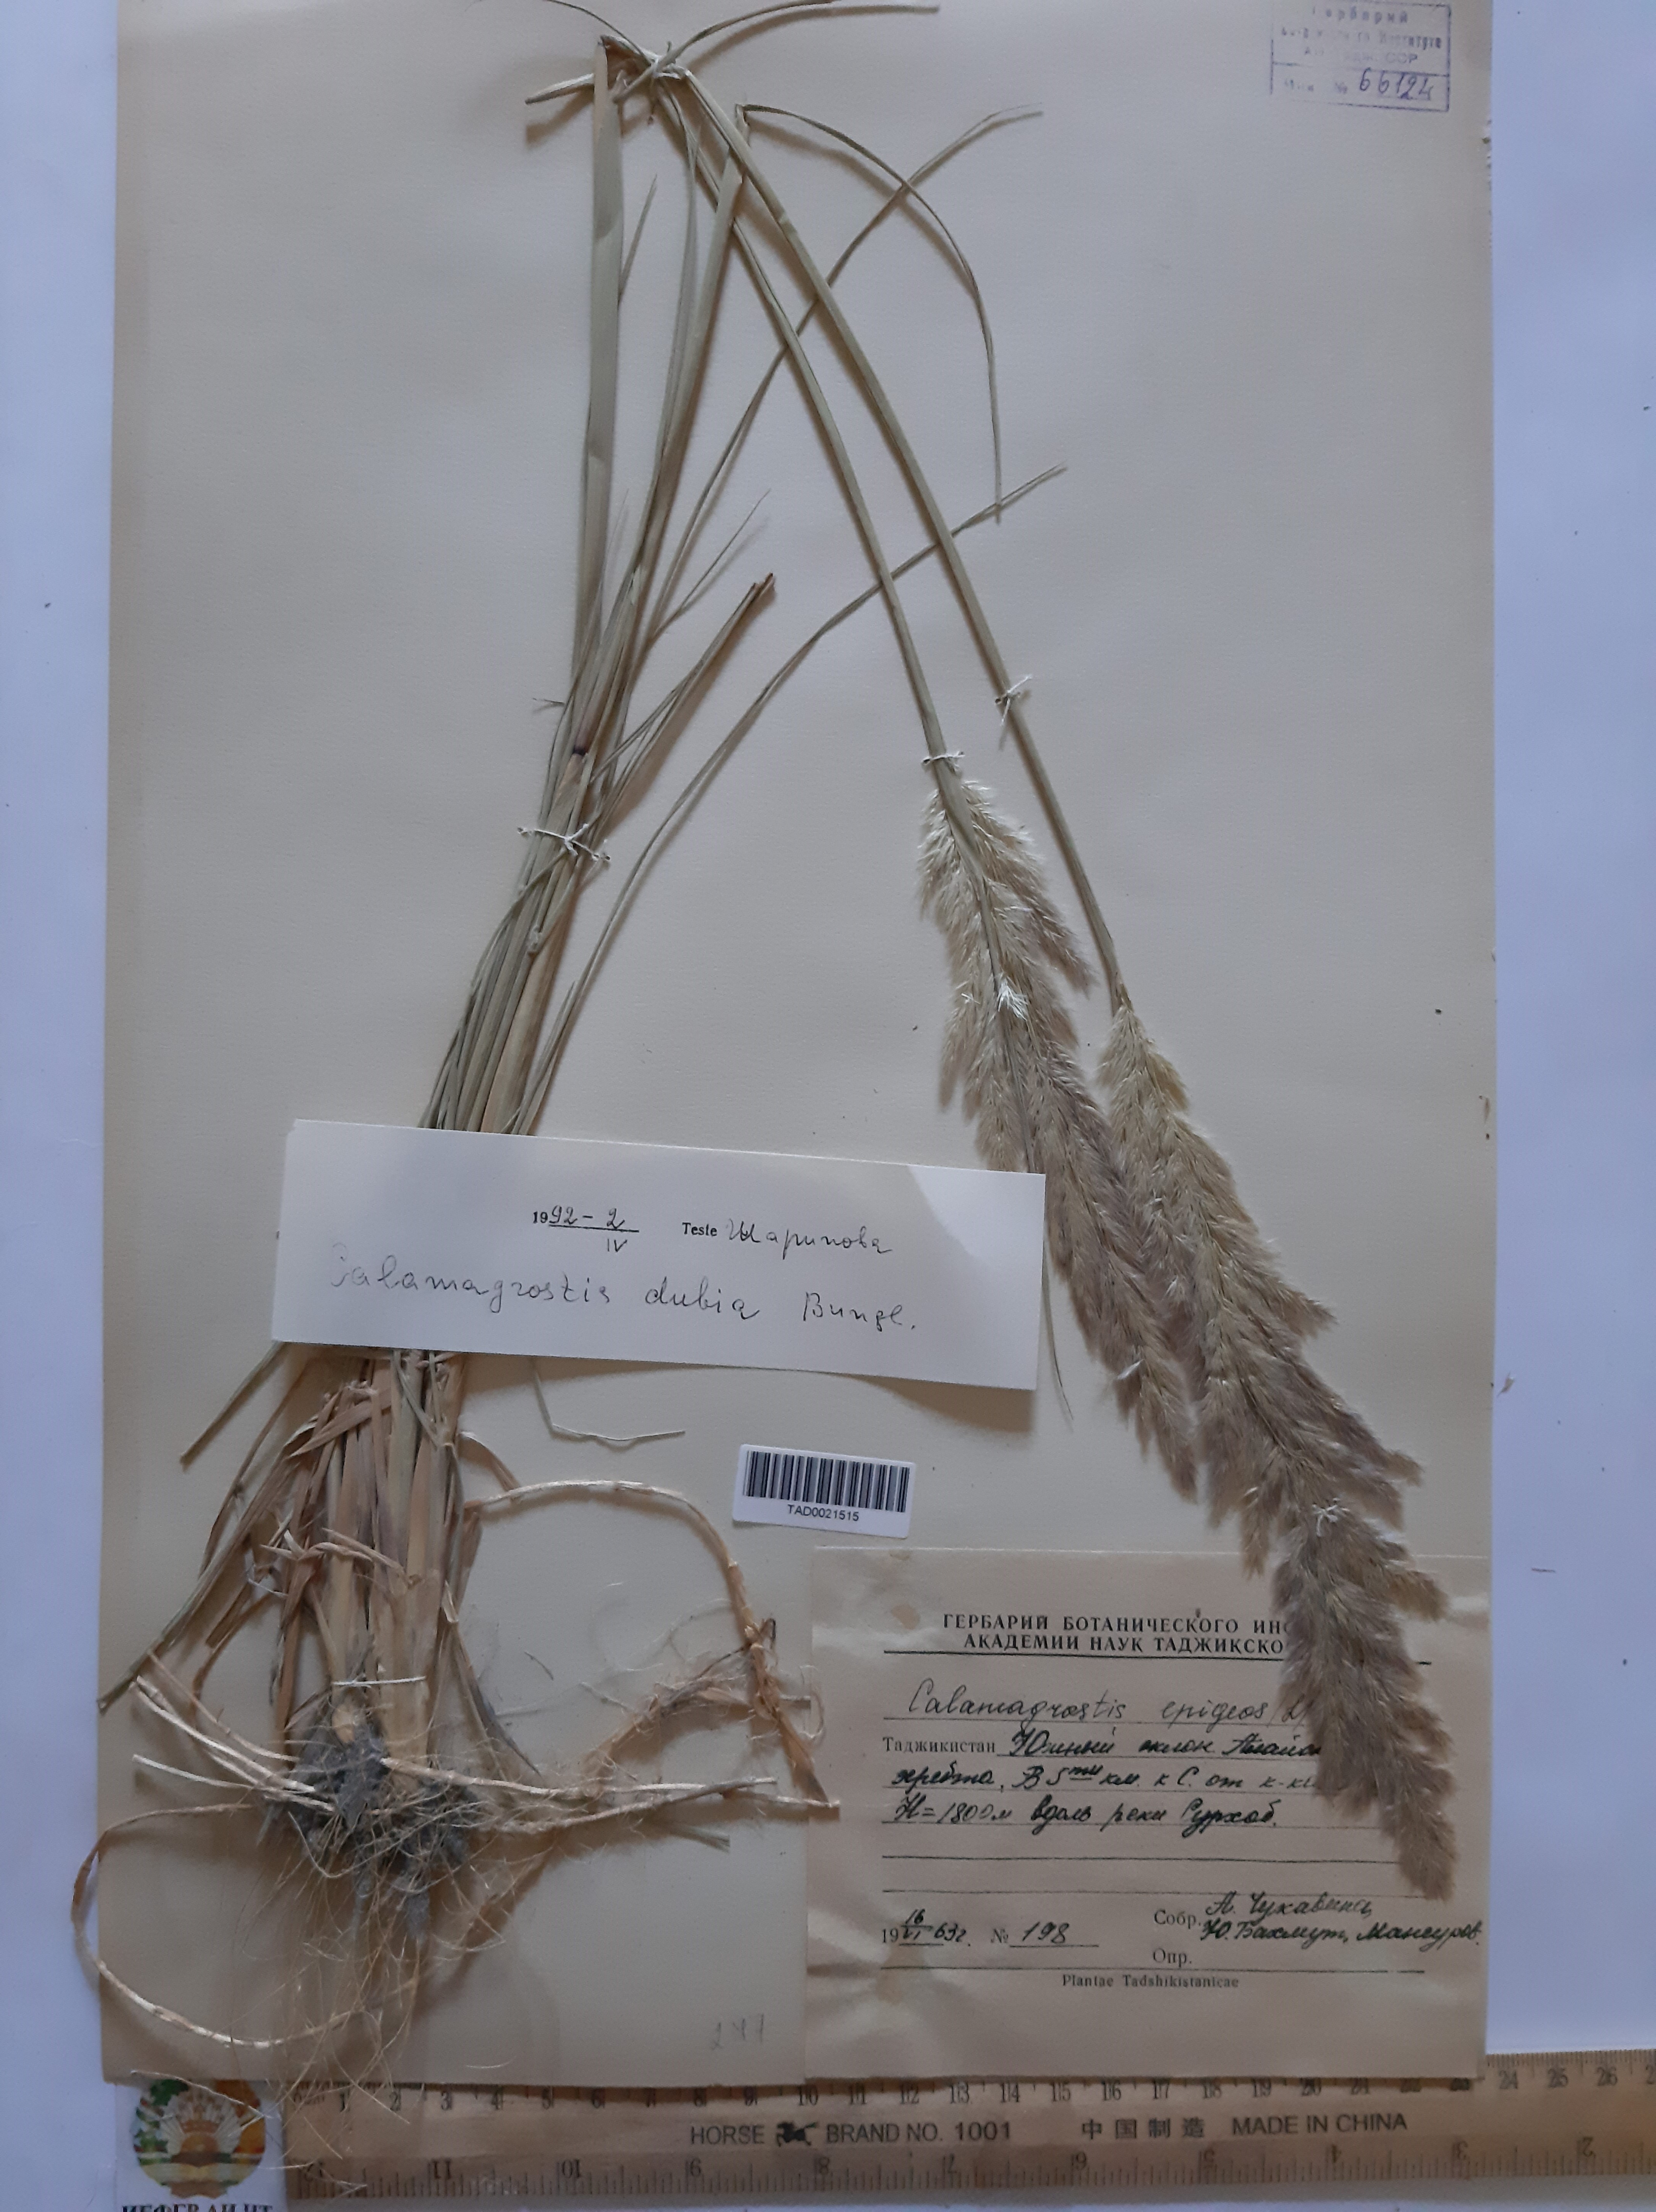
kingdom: Plantae
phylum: Tracheophyta
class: Liliopsida
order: Poales
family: Poaceae
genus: Calamagrostis
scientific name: Calamagrostis pseudophragmites
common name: Coastal small-reed
